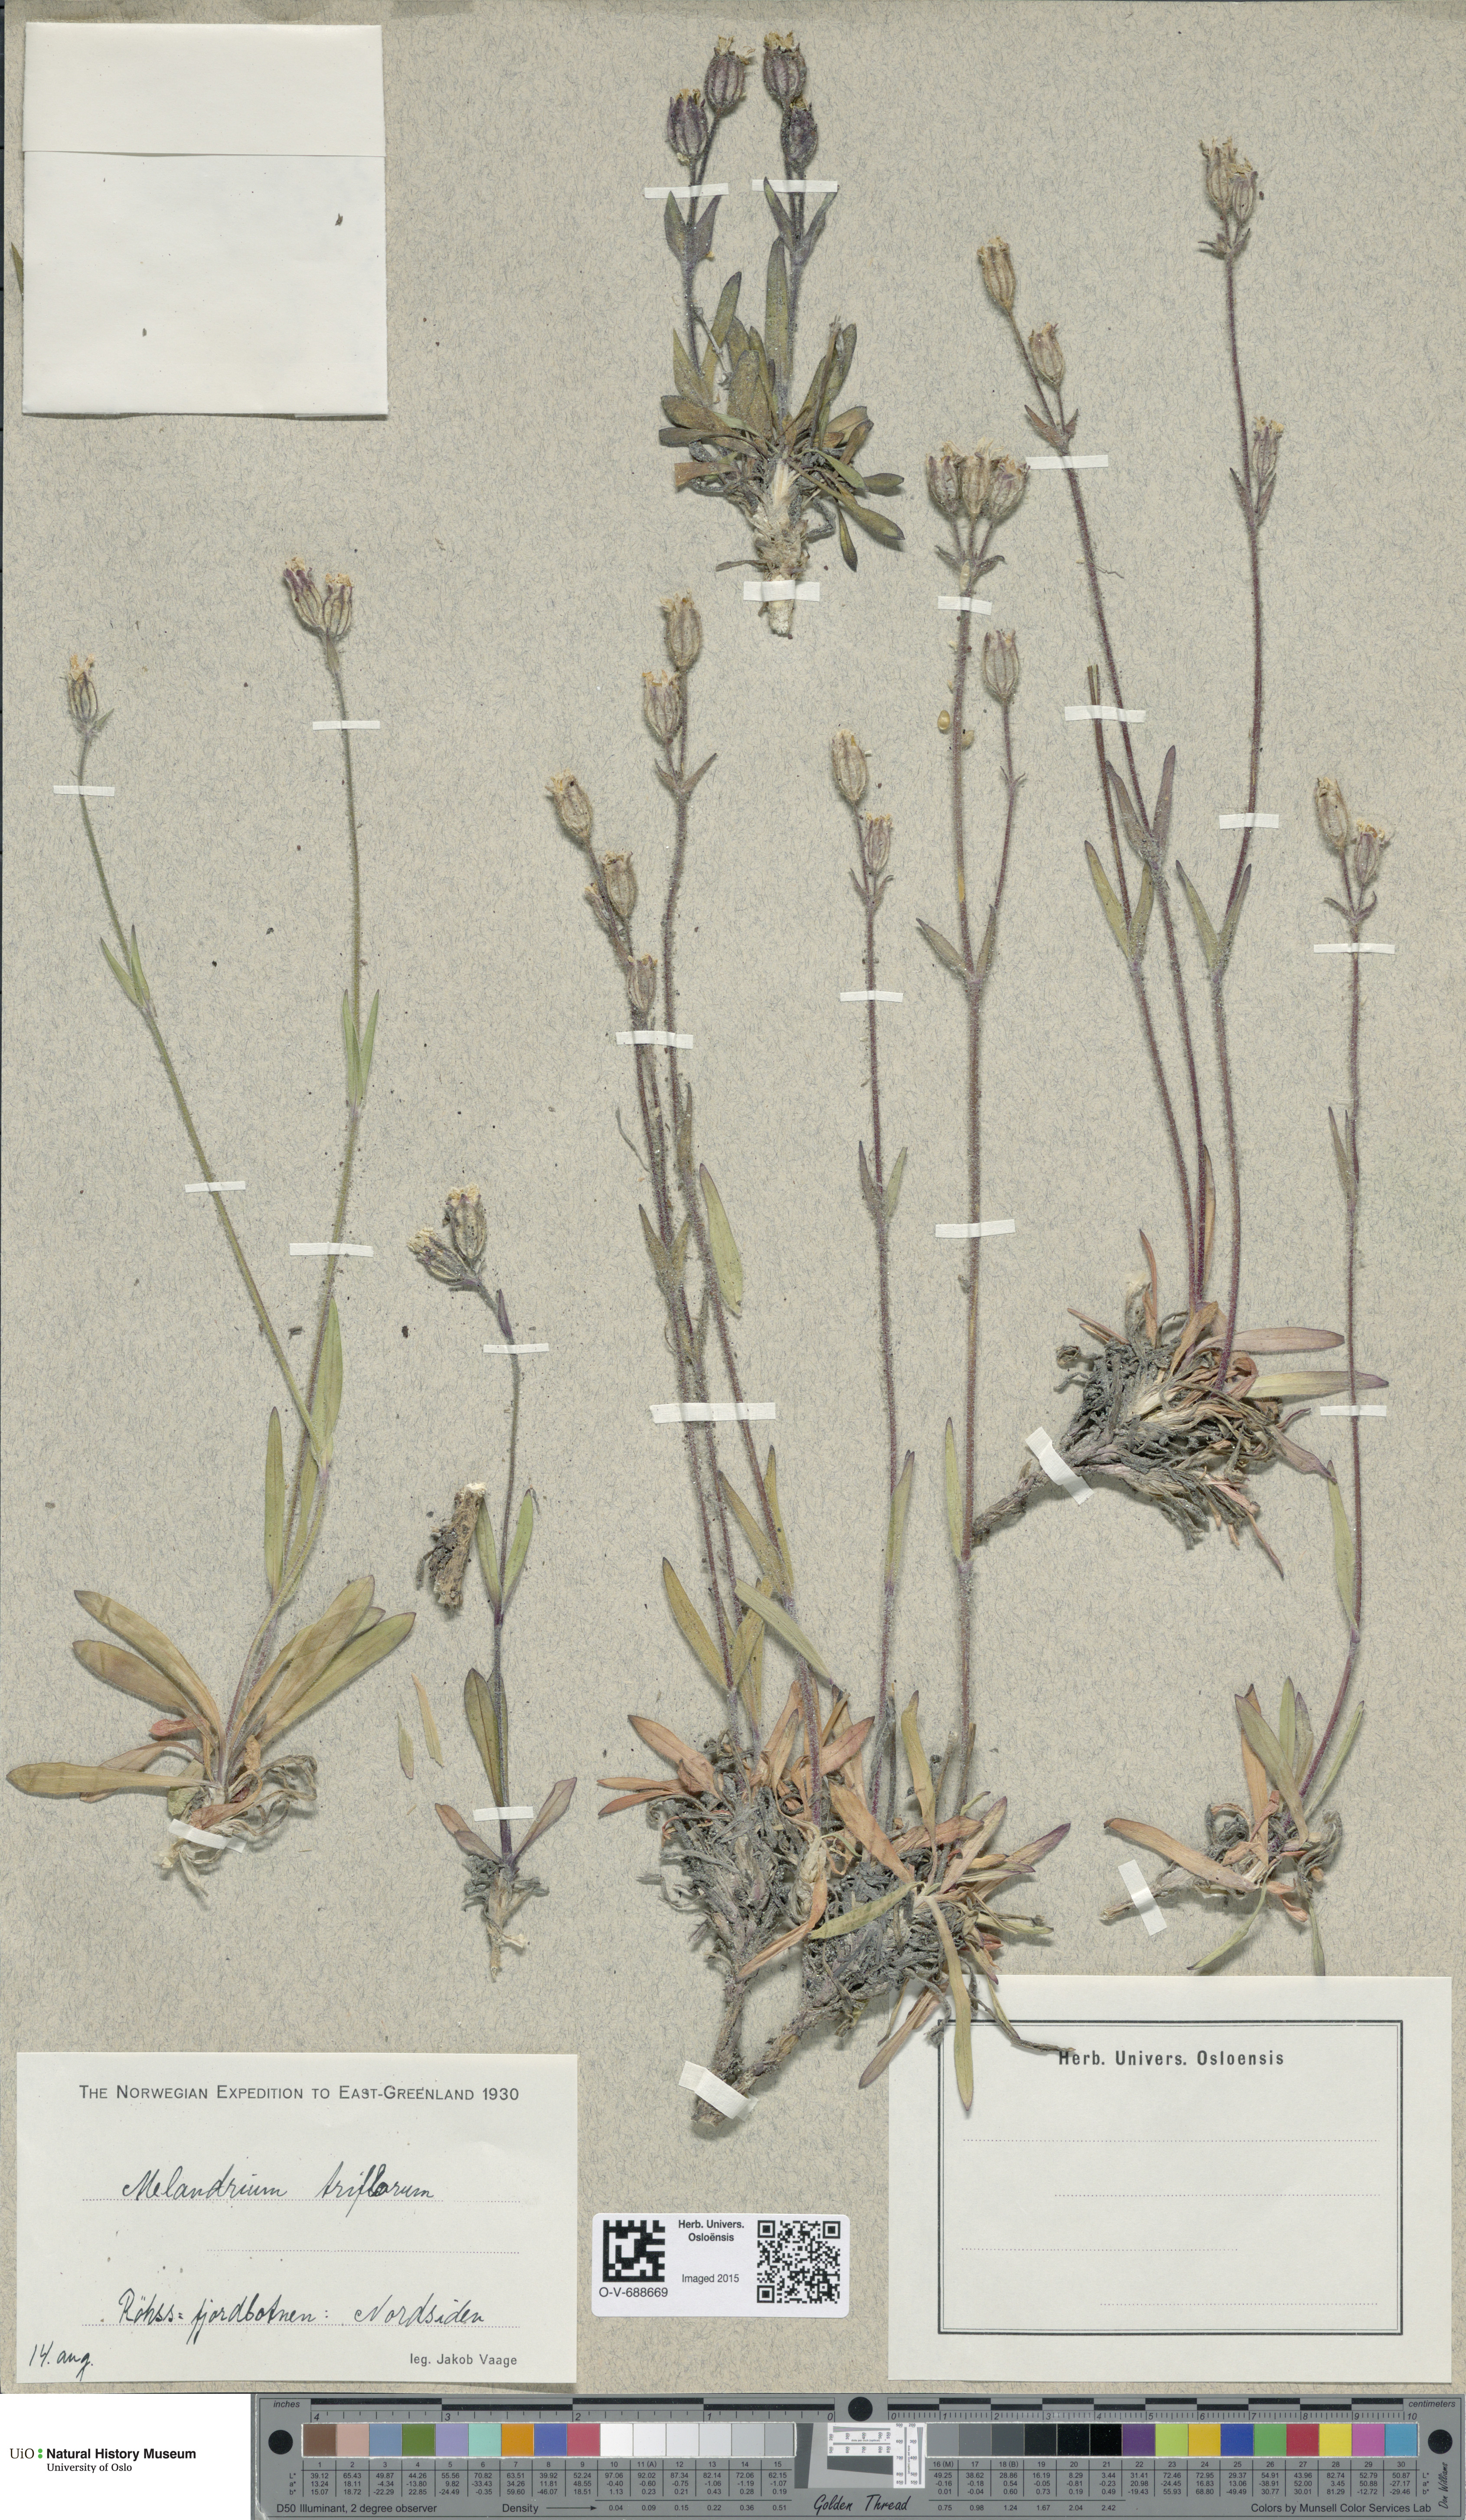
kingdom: Plantae
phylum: Tracheophyta
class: Magnoliopsida
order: Caryophyllales
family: Caryophyllaceae
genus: Silene
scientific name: Silene sorensenis
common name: Sorensen's campion
